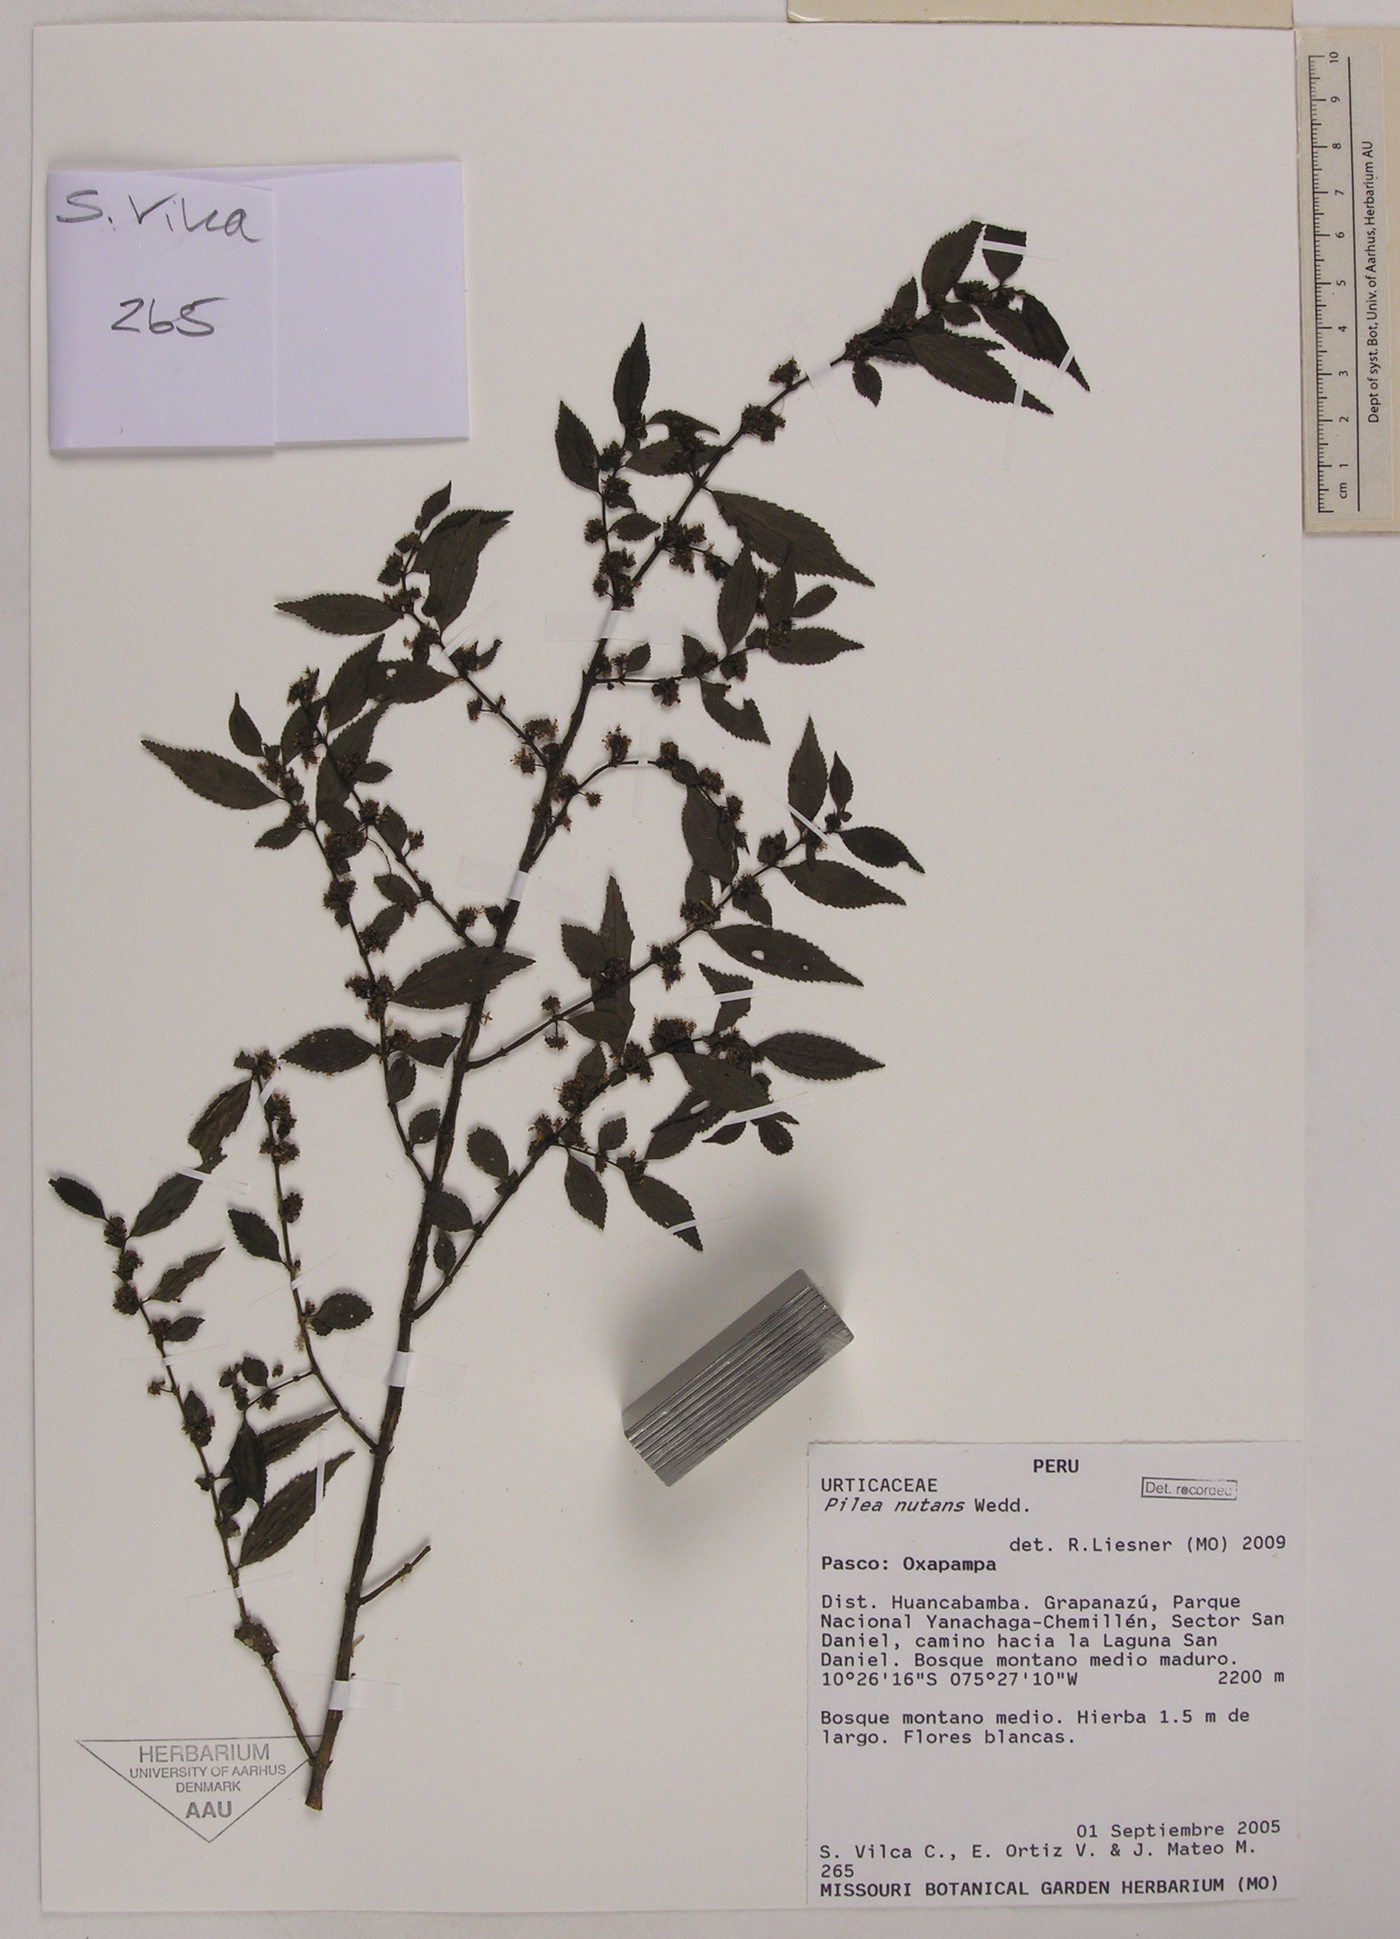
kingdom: Plantae
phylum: Tracheophyta
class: Magnoliopsida
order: Rosales
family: Urticaceae
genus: Pilea
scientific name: Pilea nutans
